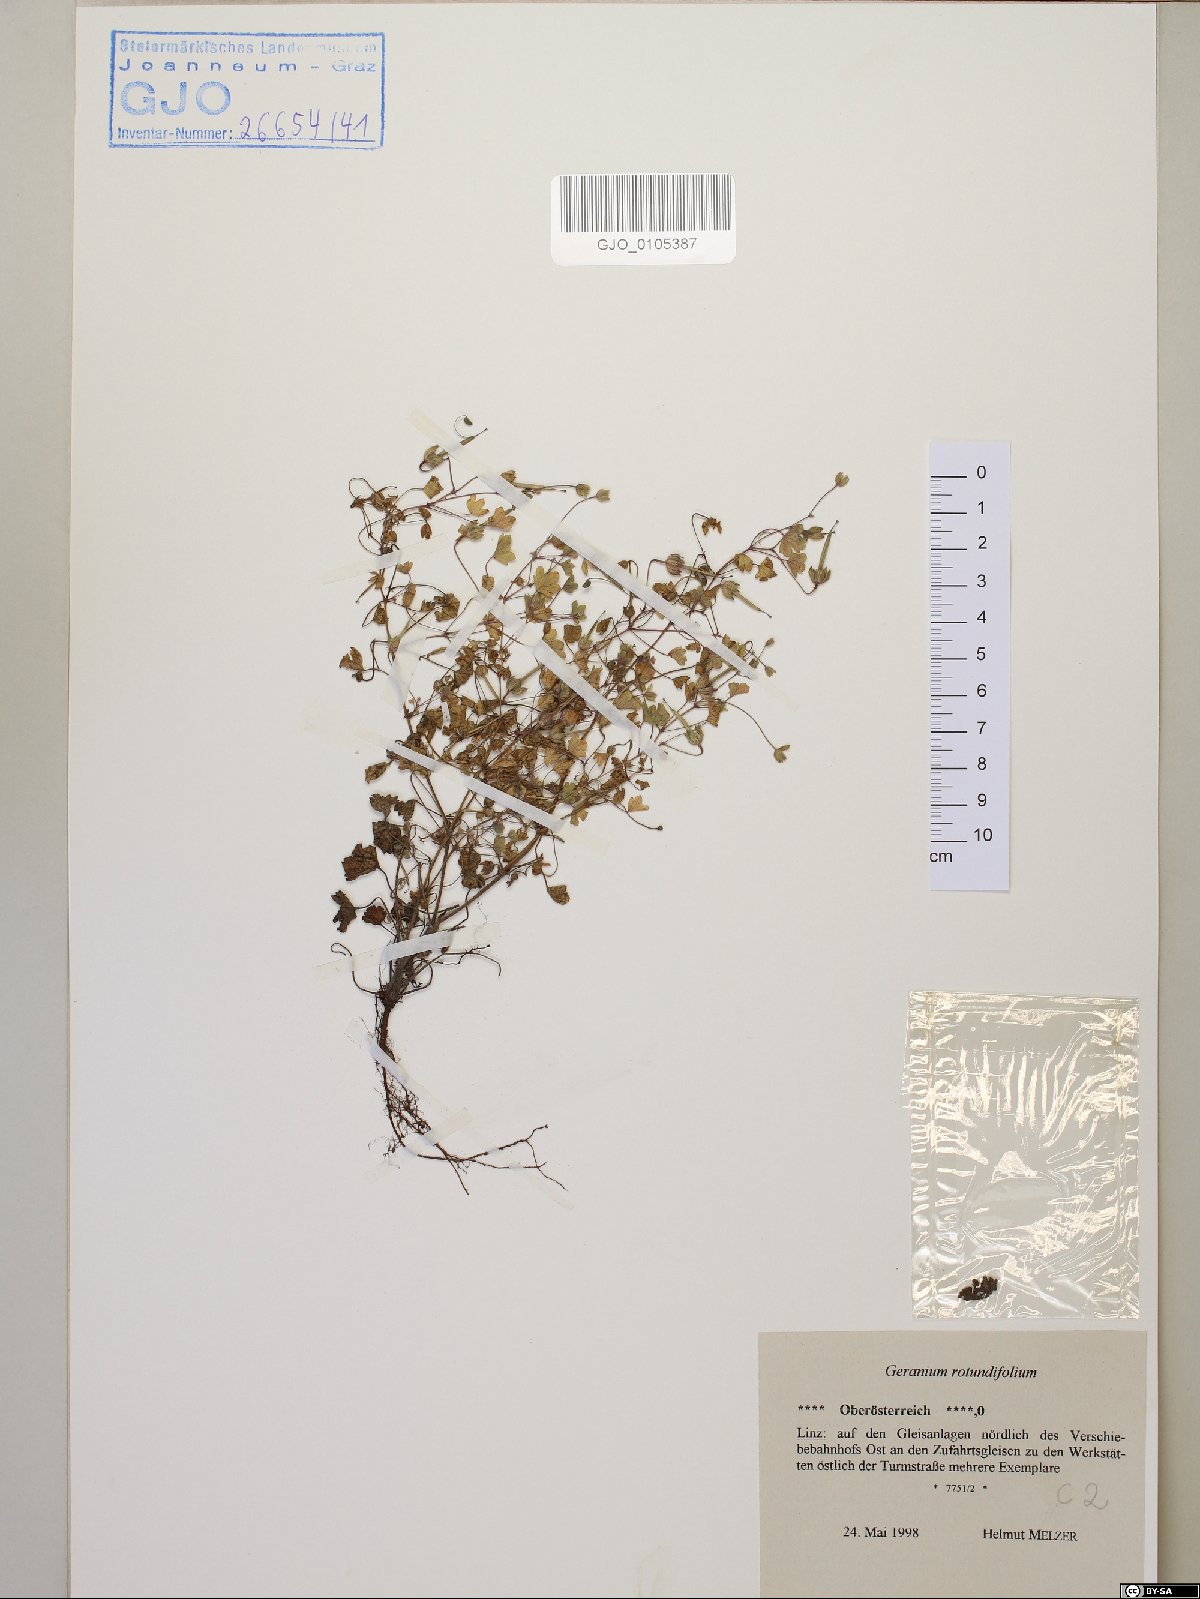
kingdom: Plantae
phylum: Tracheophyta
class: Magnoliopsida
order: Geraniales
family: Geraniaceae
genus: Geranium
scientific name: Geranium rotundifolium
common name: Round-leaved crane's-bill
